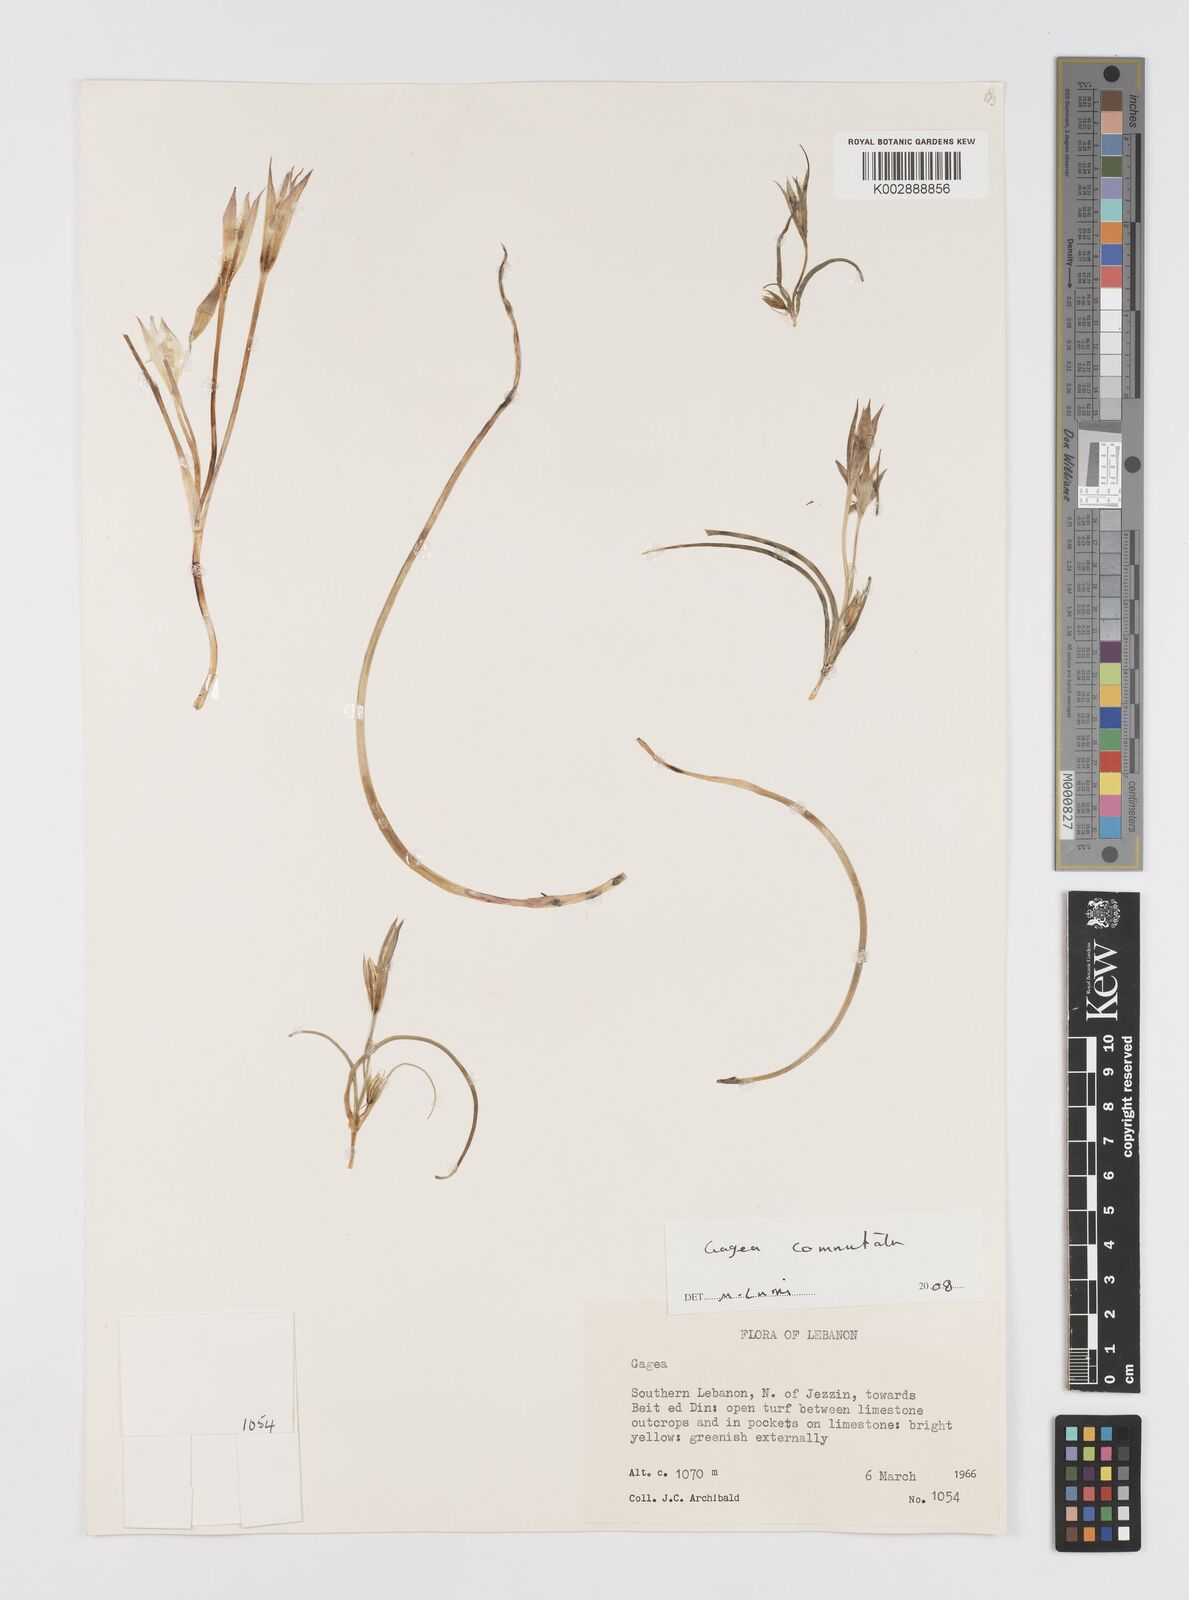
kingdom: Plantae
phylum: Tracheophyta
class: Liliopsida
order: Liliales
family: Liliaceae
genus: Gagea
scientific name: Gagea
